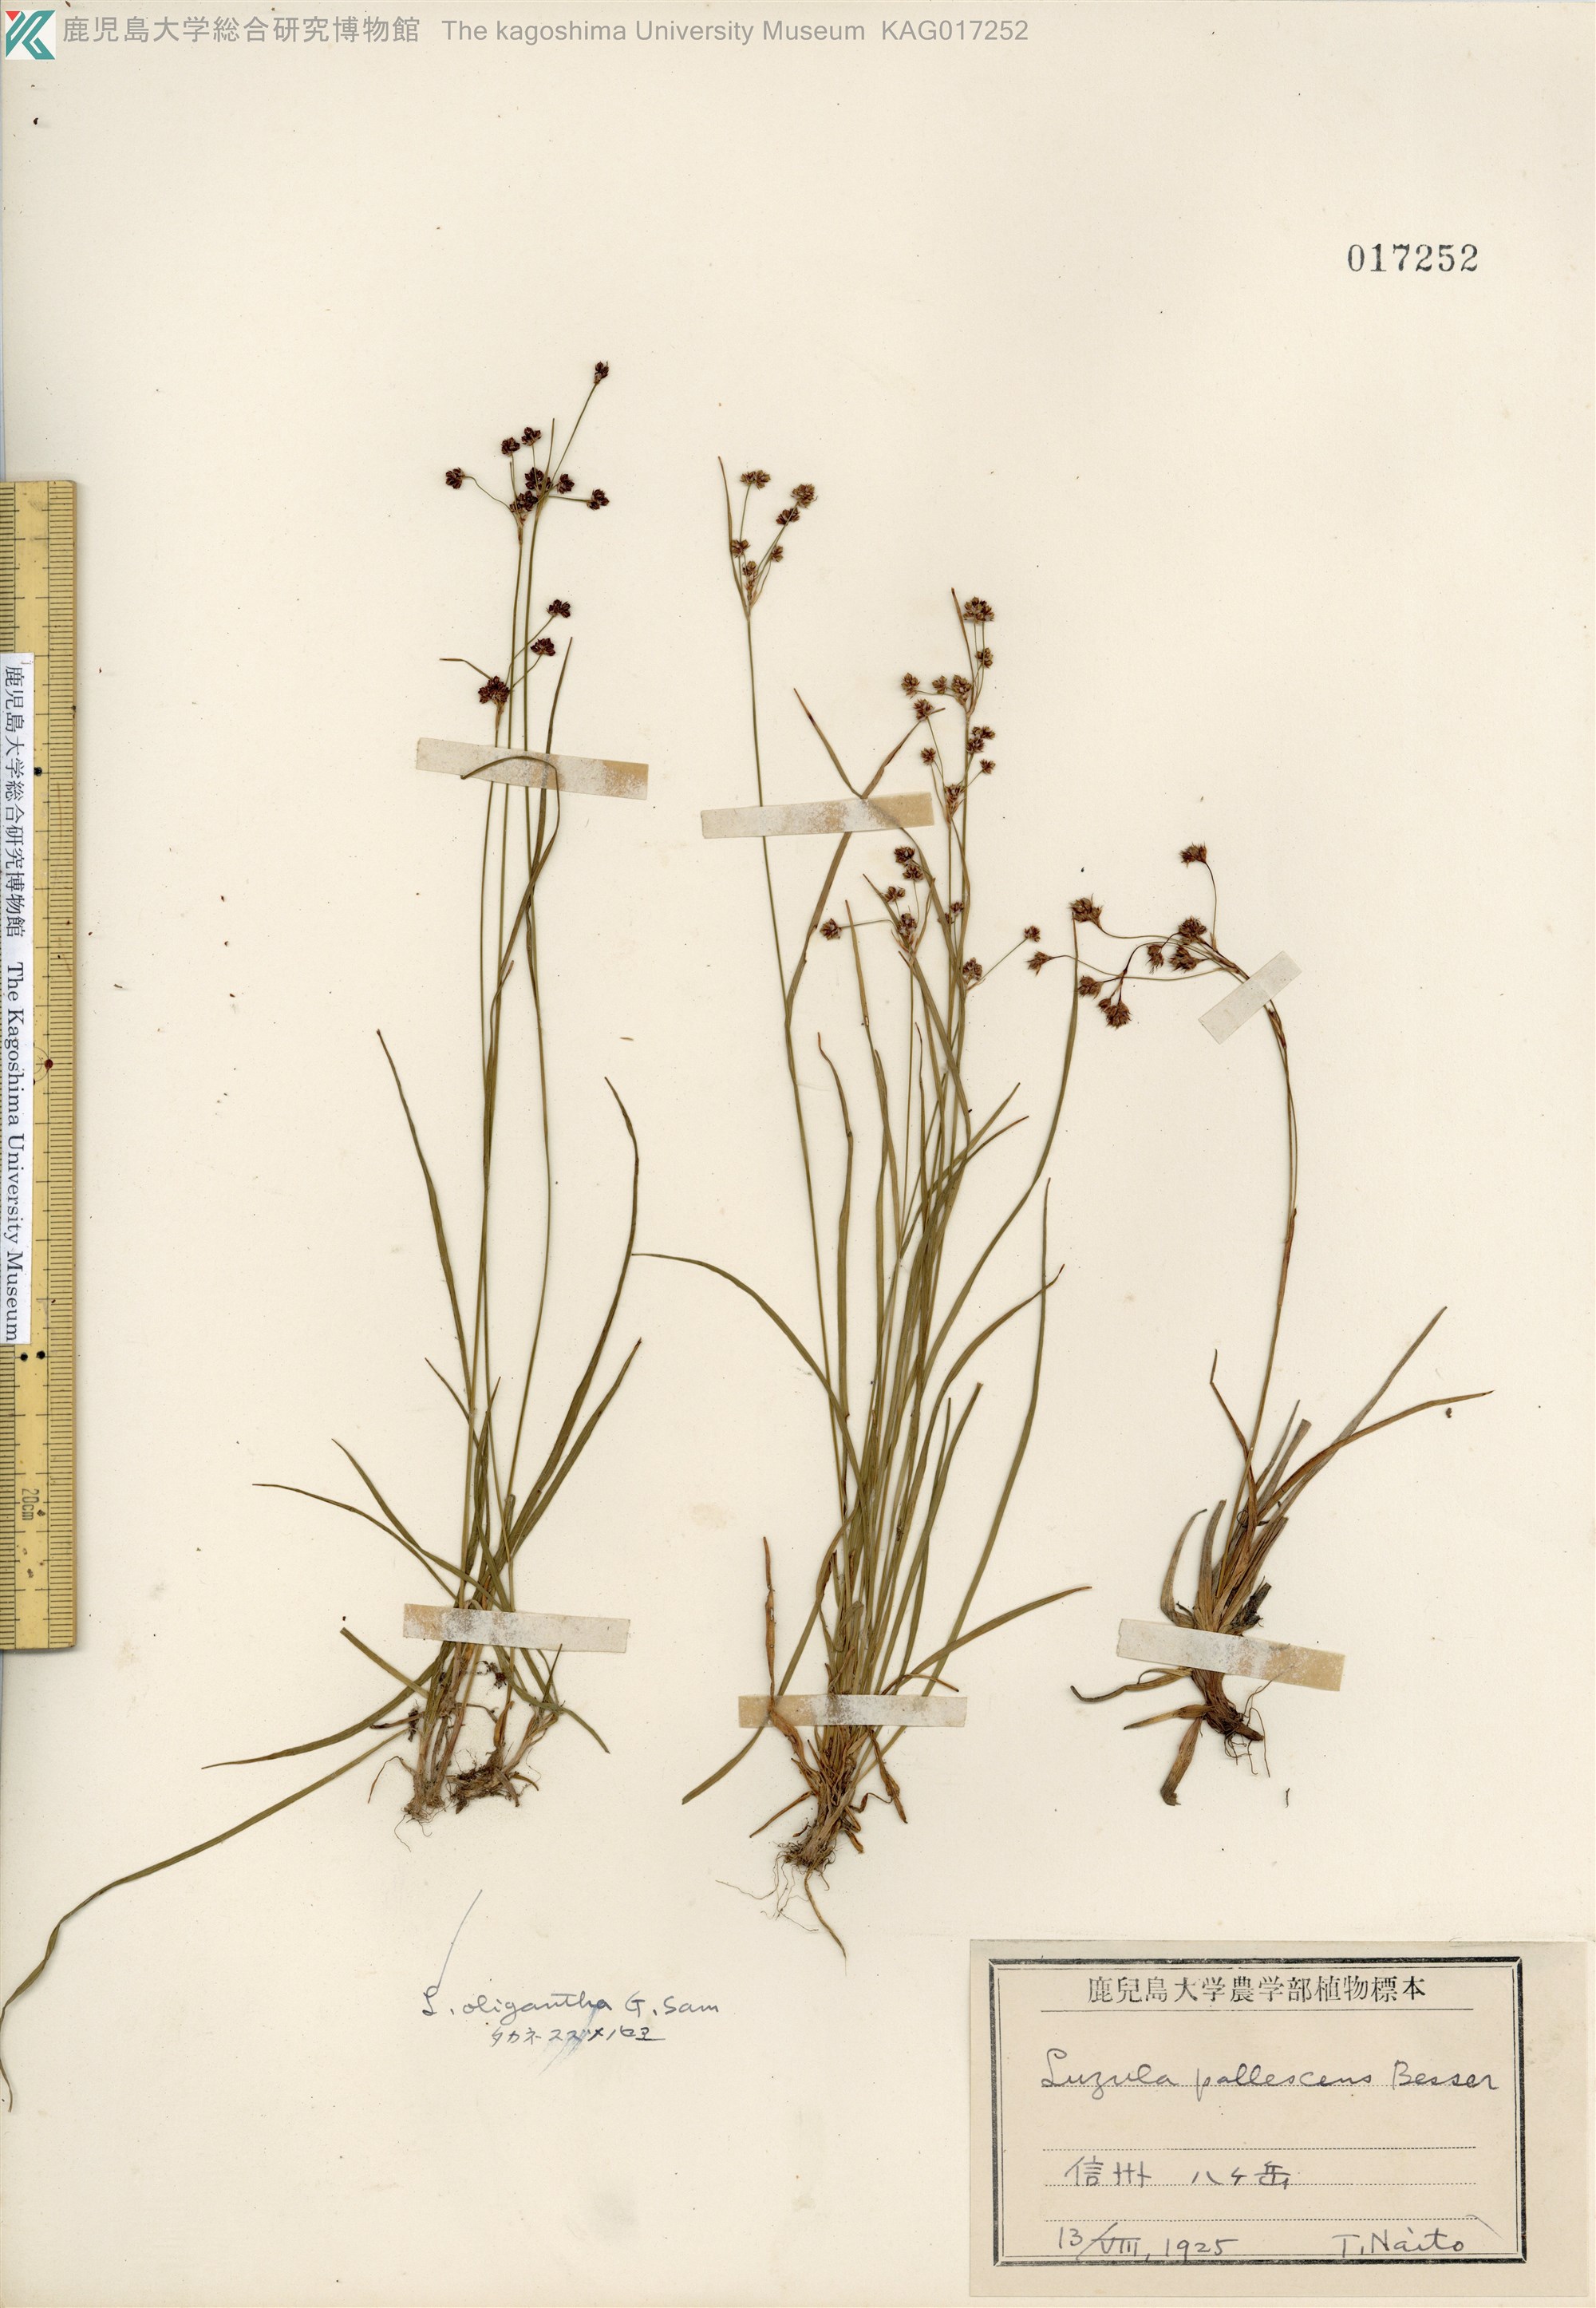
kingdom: Plantae
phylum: Tracheophyta
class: Liliopsida
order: Poales
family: Juncaceae
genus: Luzula
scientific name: Luzula pallescens
